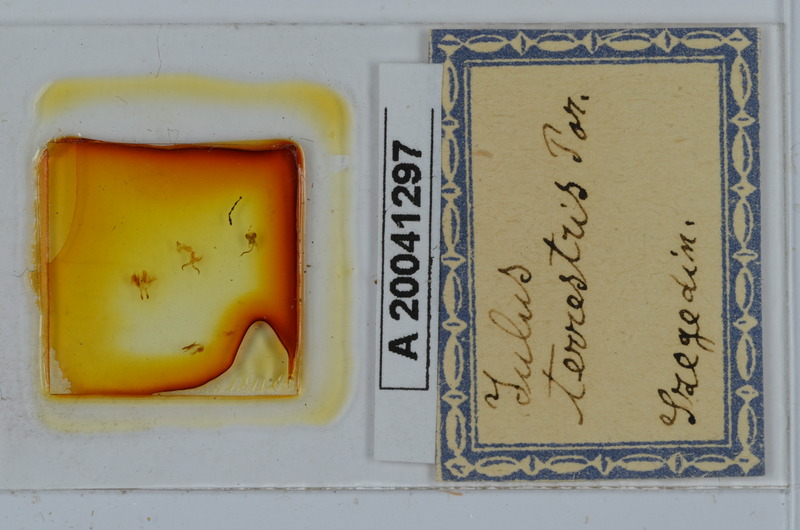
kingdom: Animalia
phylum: Arthropoda
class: Diplopoda
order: Julida
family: Julidae
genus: Julus
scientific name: Julus terrestris
